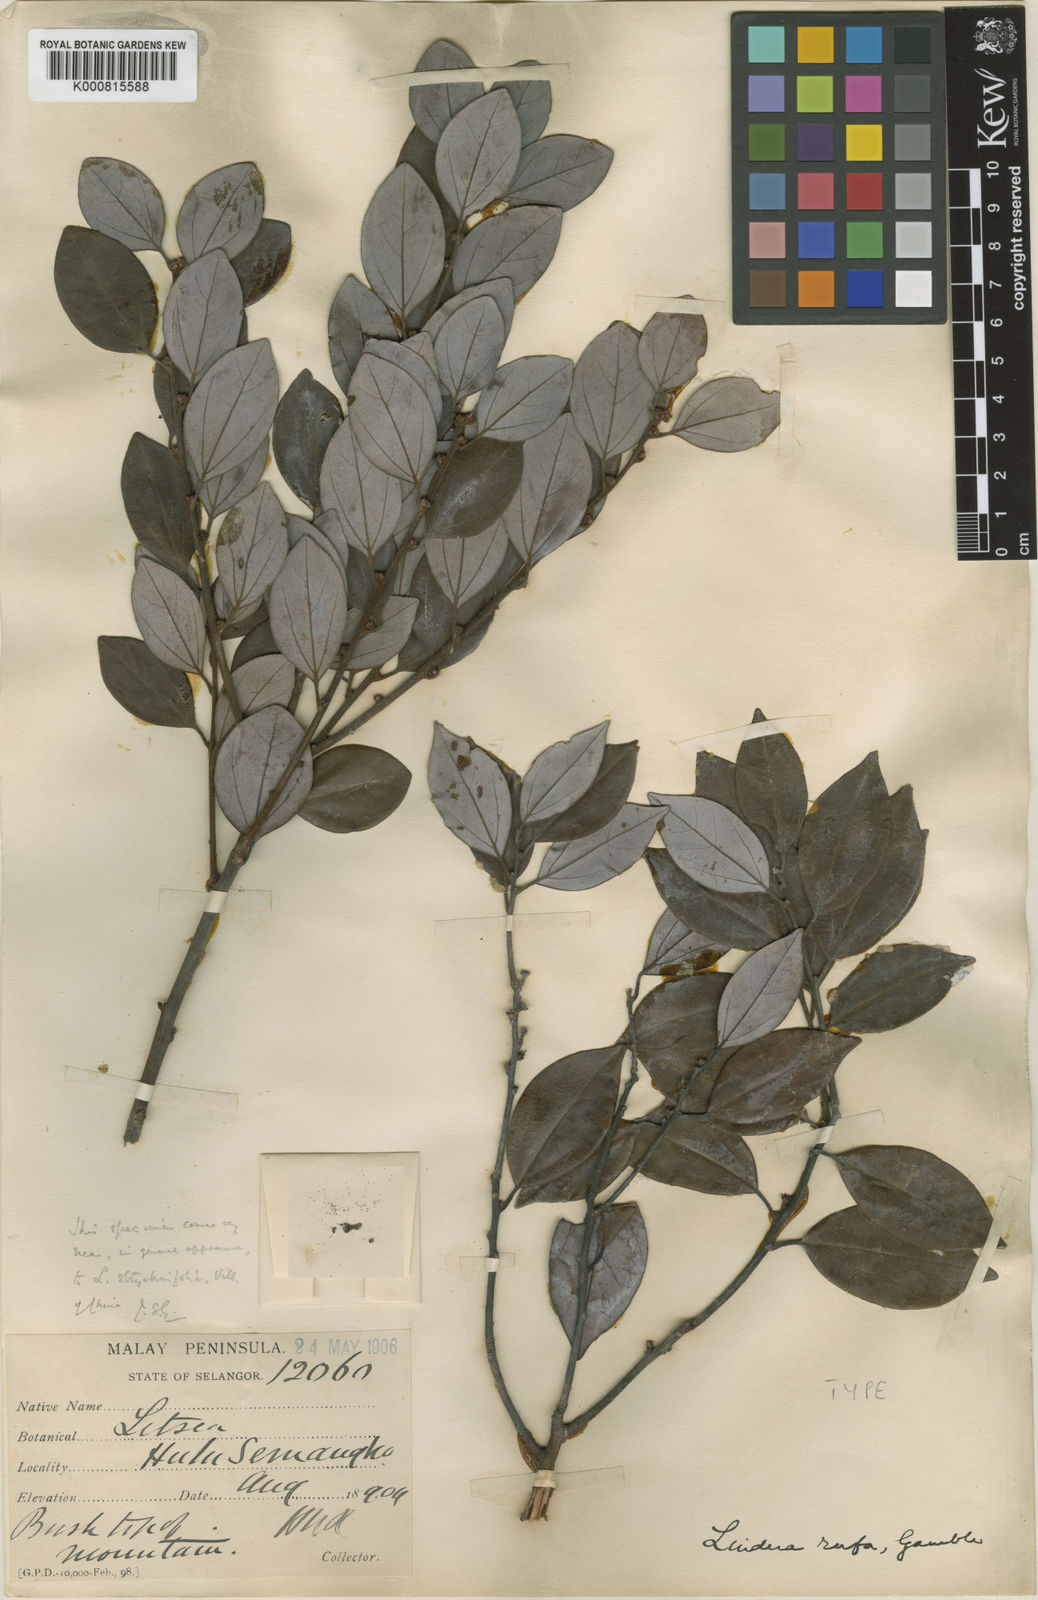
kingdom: Plantae
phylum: Tracheophyta
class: Magnoliopsida
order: Laurales
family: Lauraceae
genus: Lindera
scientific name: Lindera rufa
